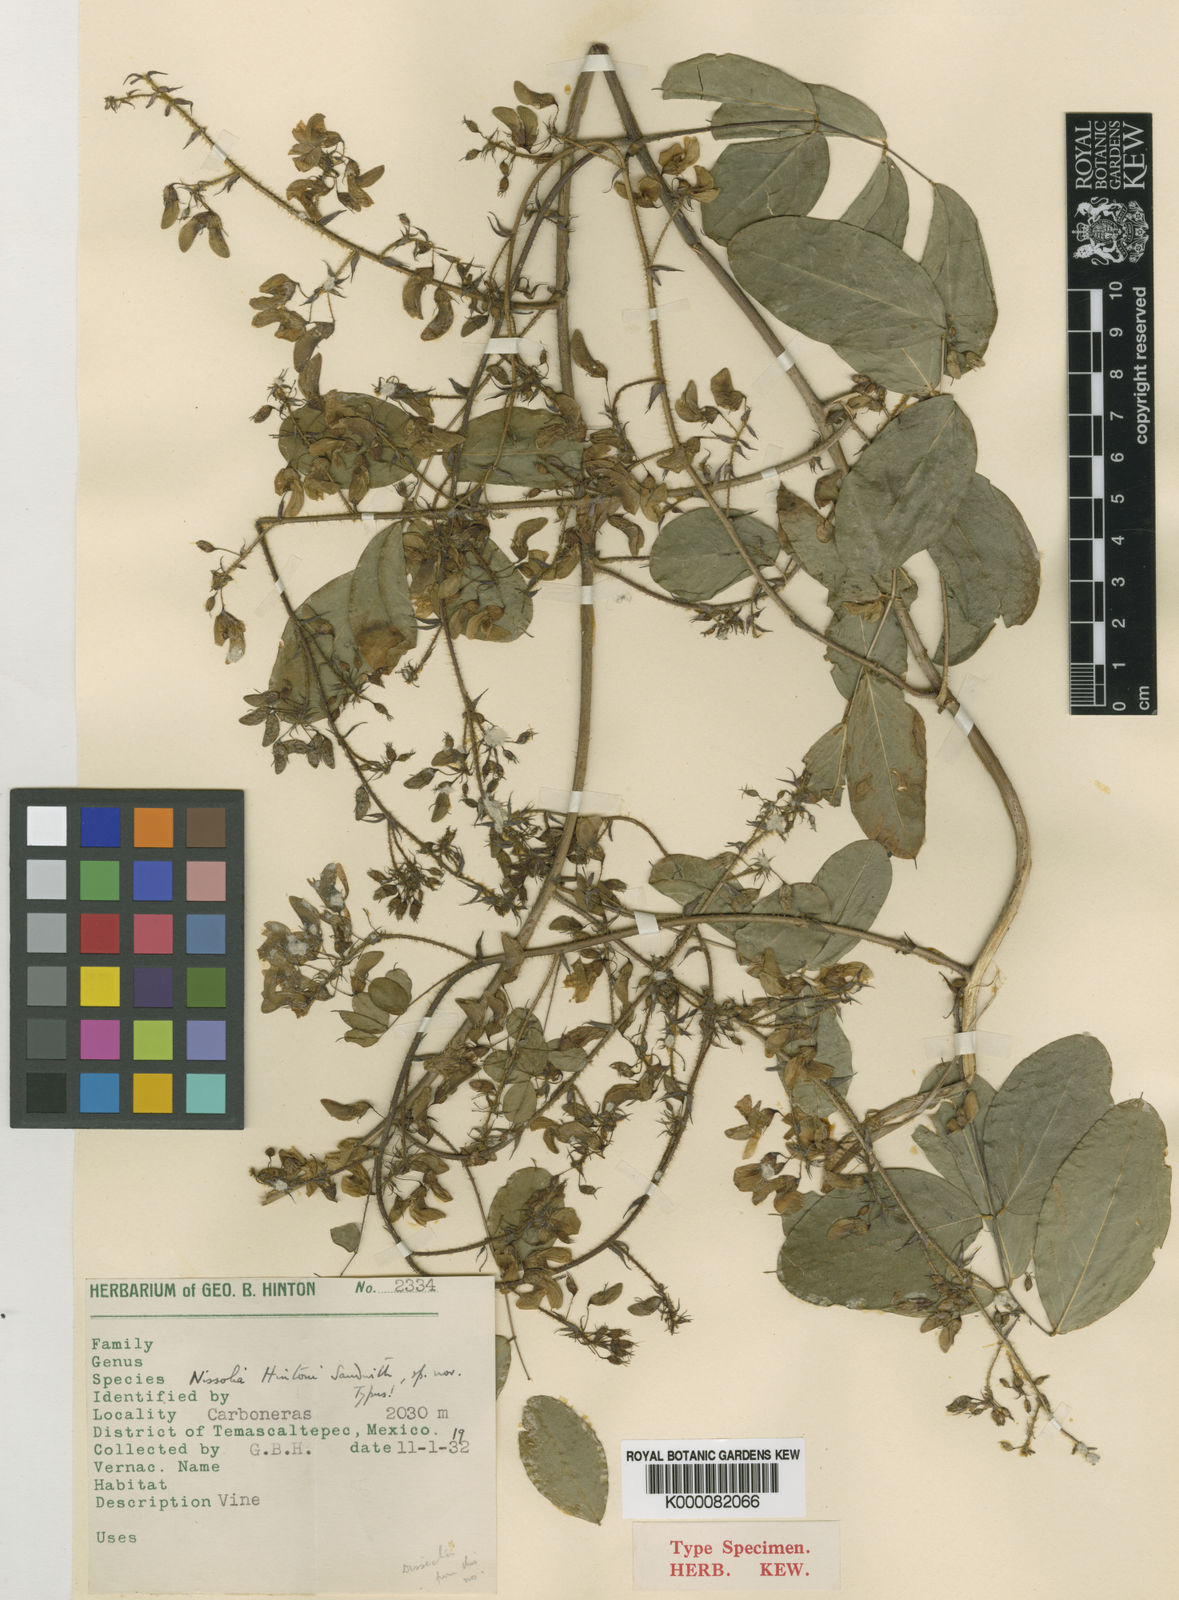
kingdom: Plantae
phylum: Tracheophyta
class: Magnoliopsida
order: Fabales
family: Fabaceae
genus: Nissolia
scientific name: Nissolia hintonii
